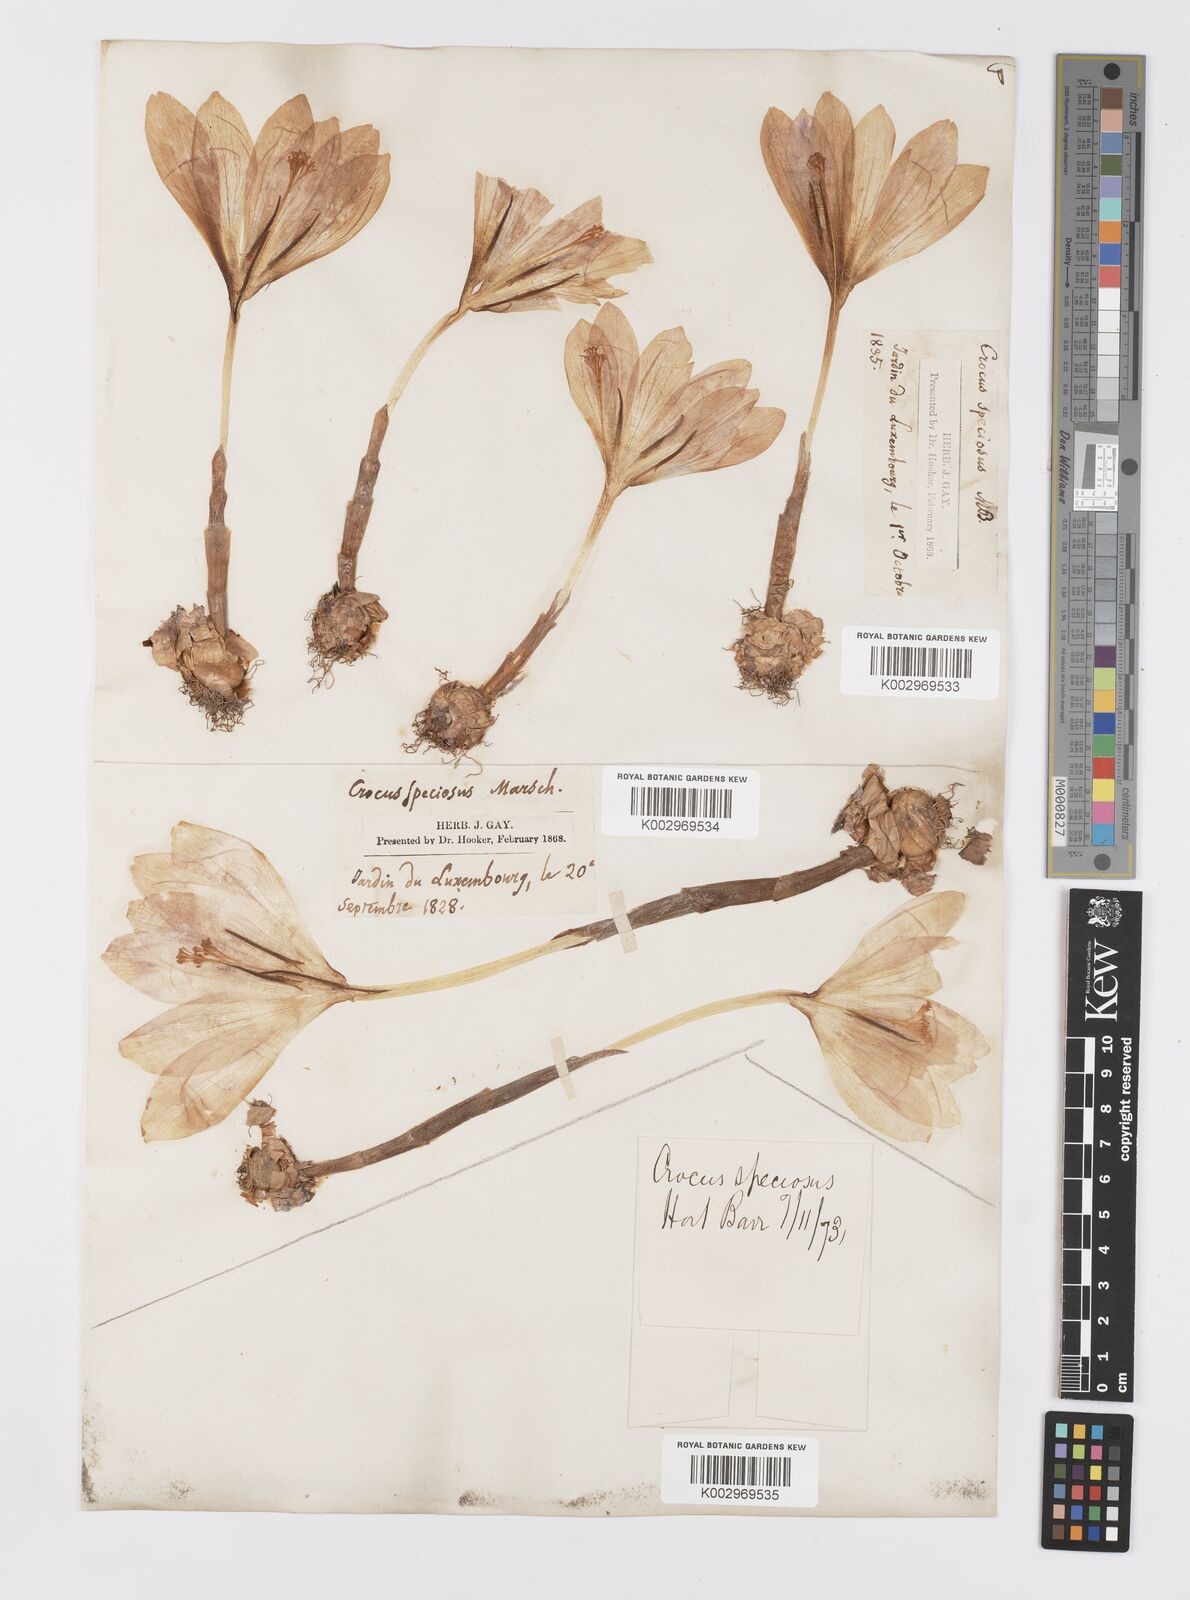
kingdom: Plantae
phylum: Tracheophyta
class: Liliopsida
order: Asparagales
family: Iridaceae
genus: Crocus
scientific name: Crocus speciosus
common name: Bieberstein's crocus
